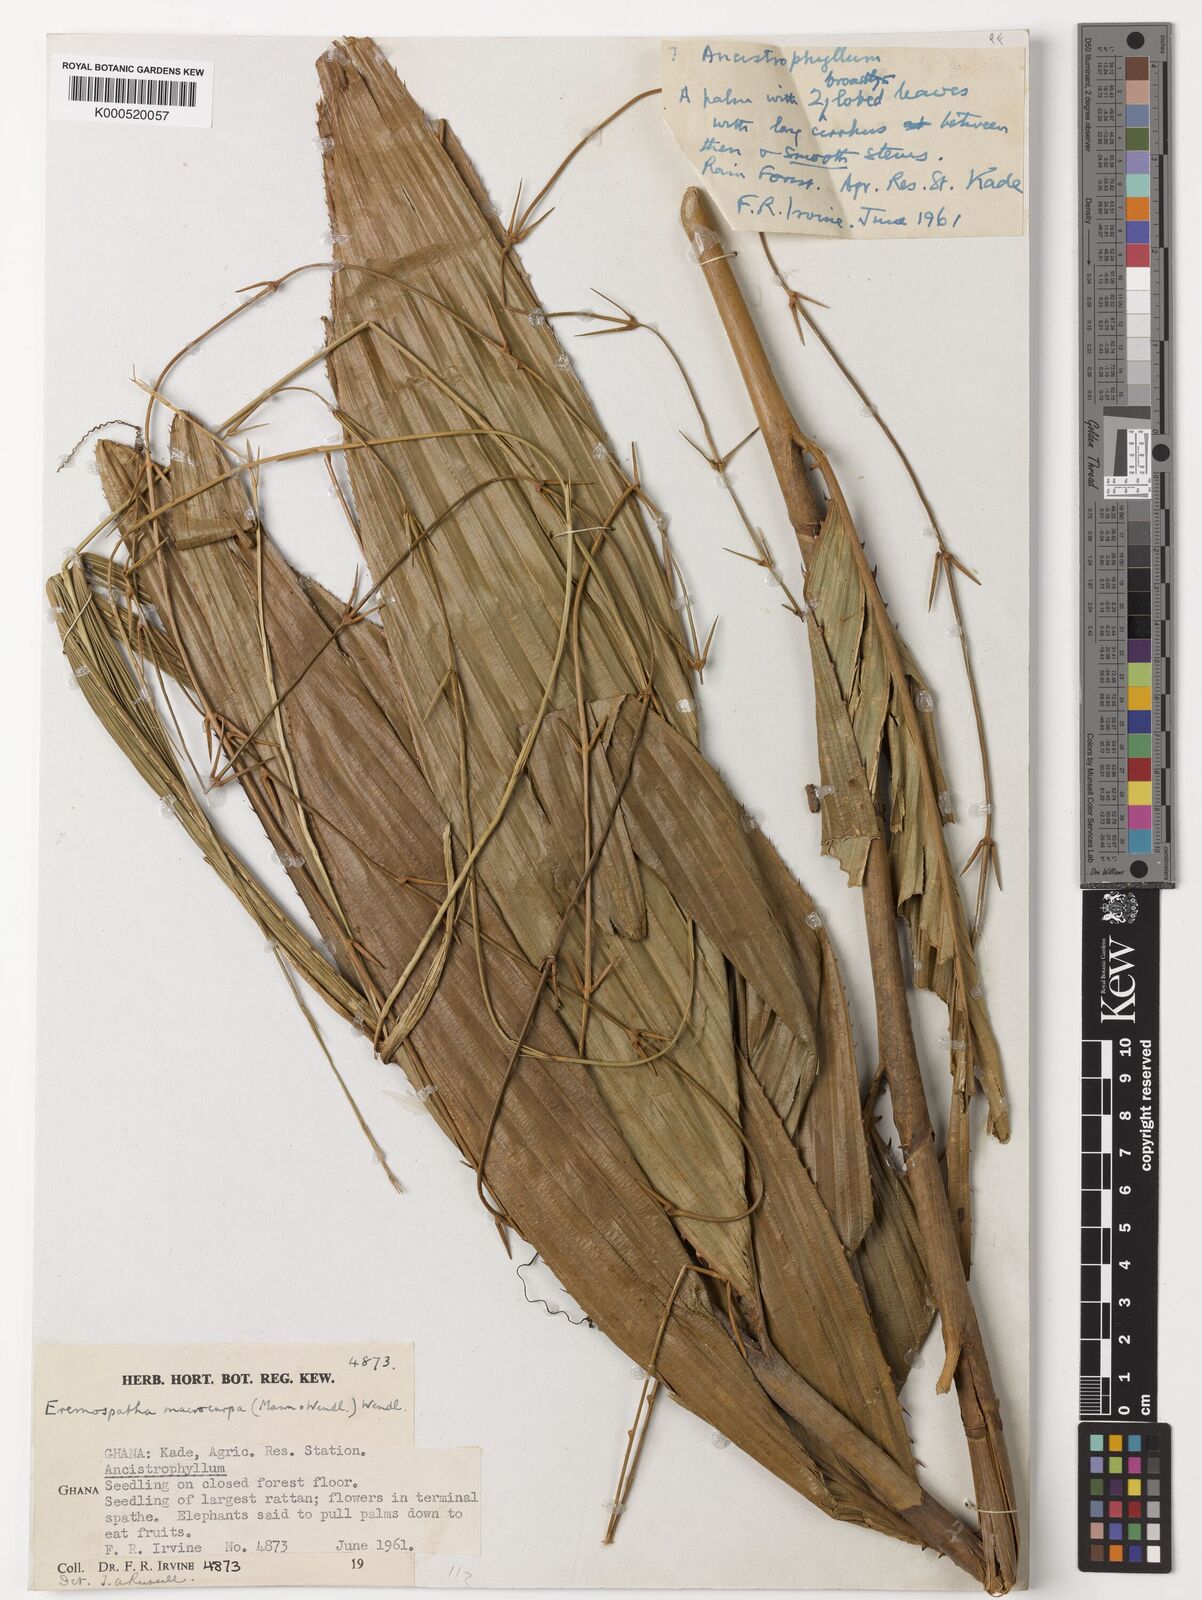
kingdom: Plantae
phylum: Tracheophyta
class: Liliopsida
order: Arecales
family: Arecaceae
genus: Eremospatha
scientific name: Eremospatha
